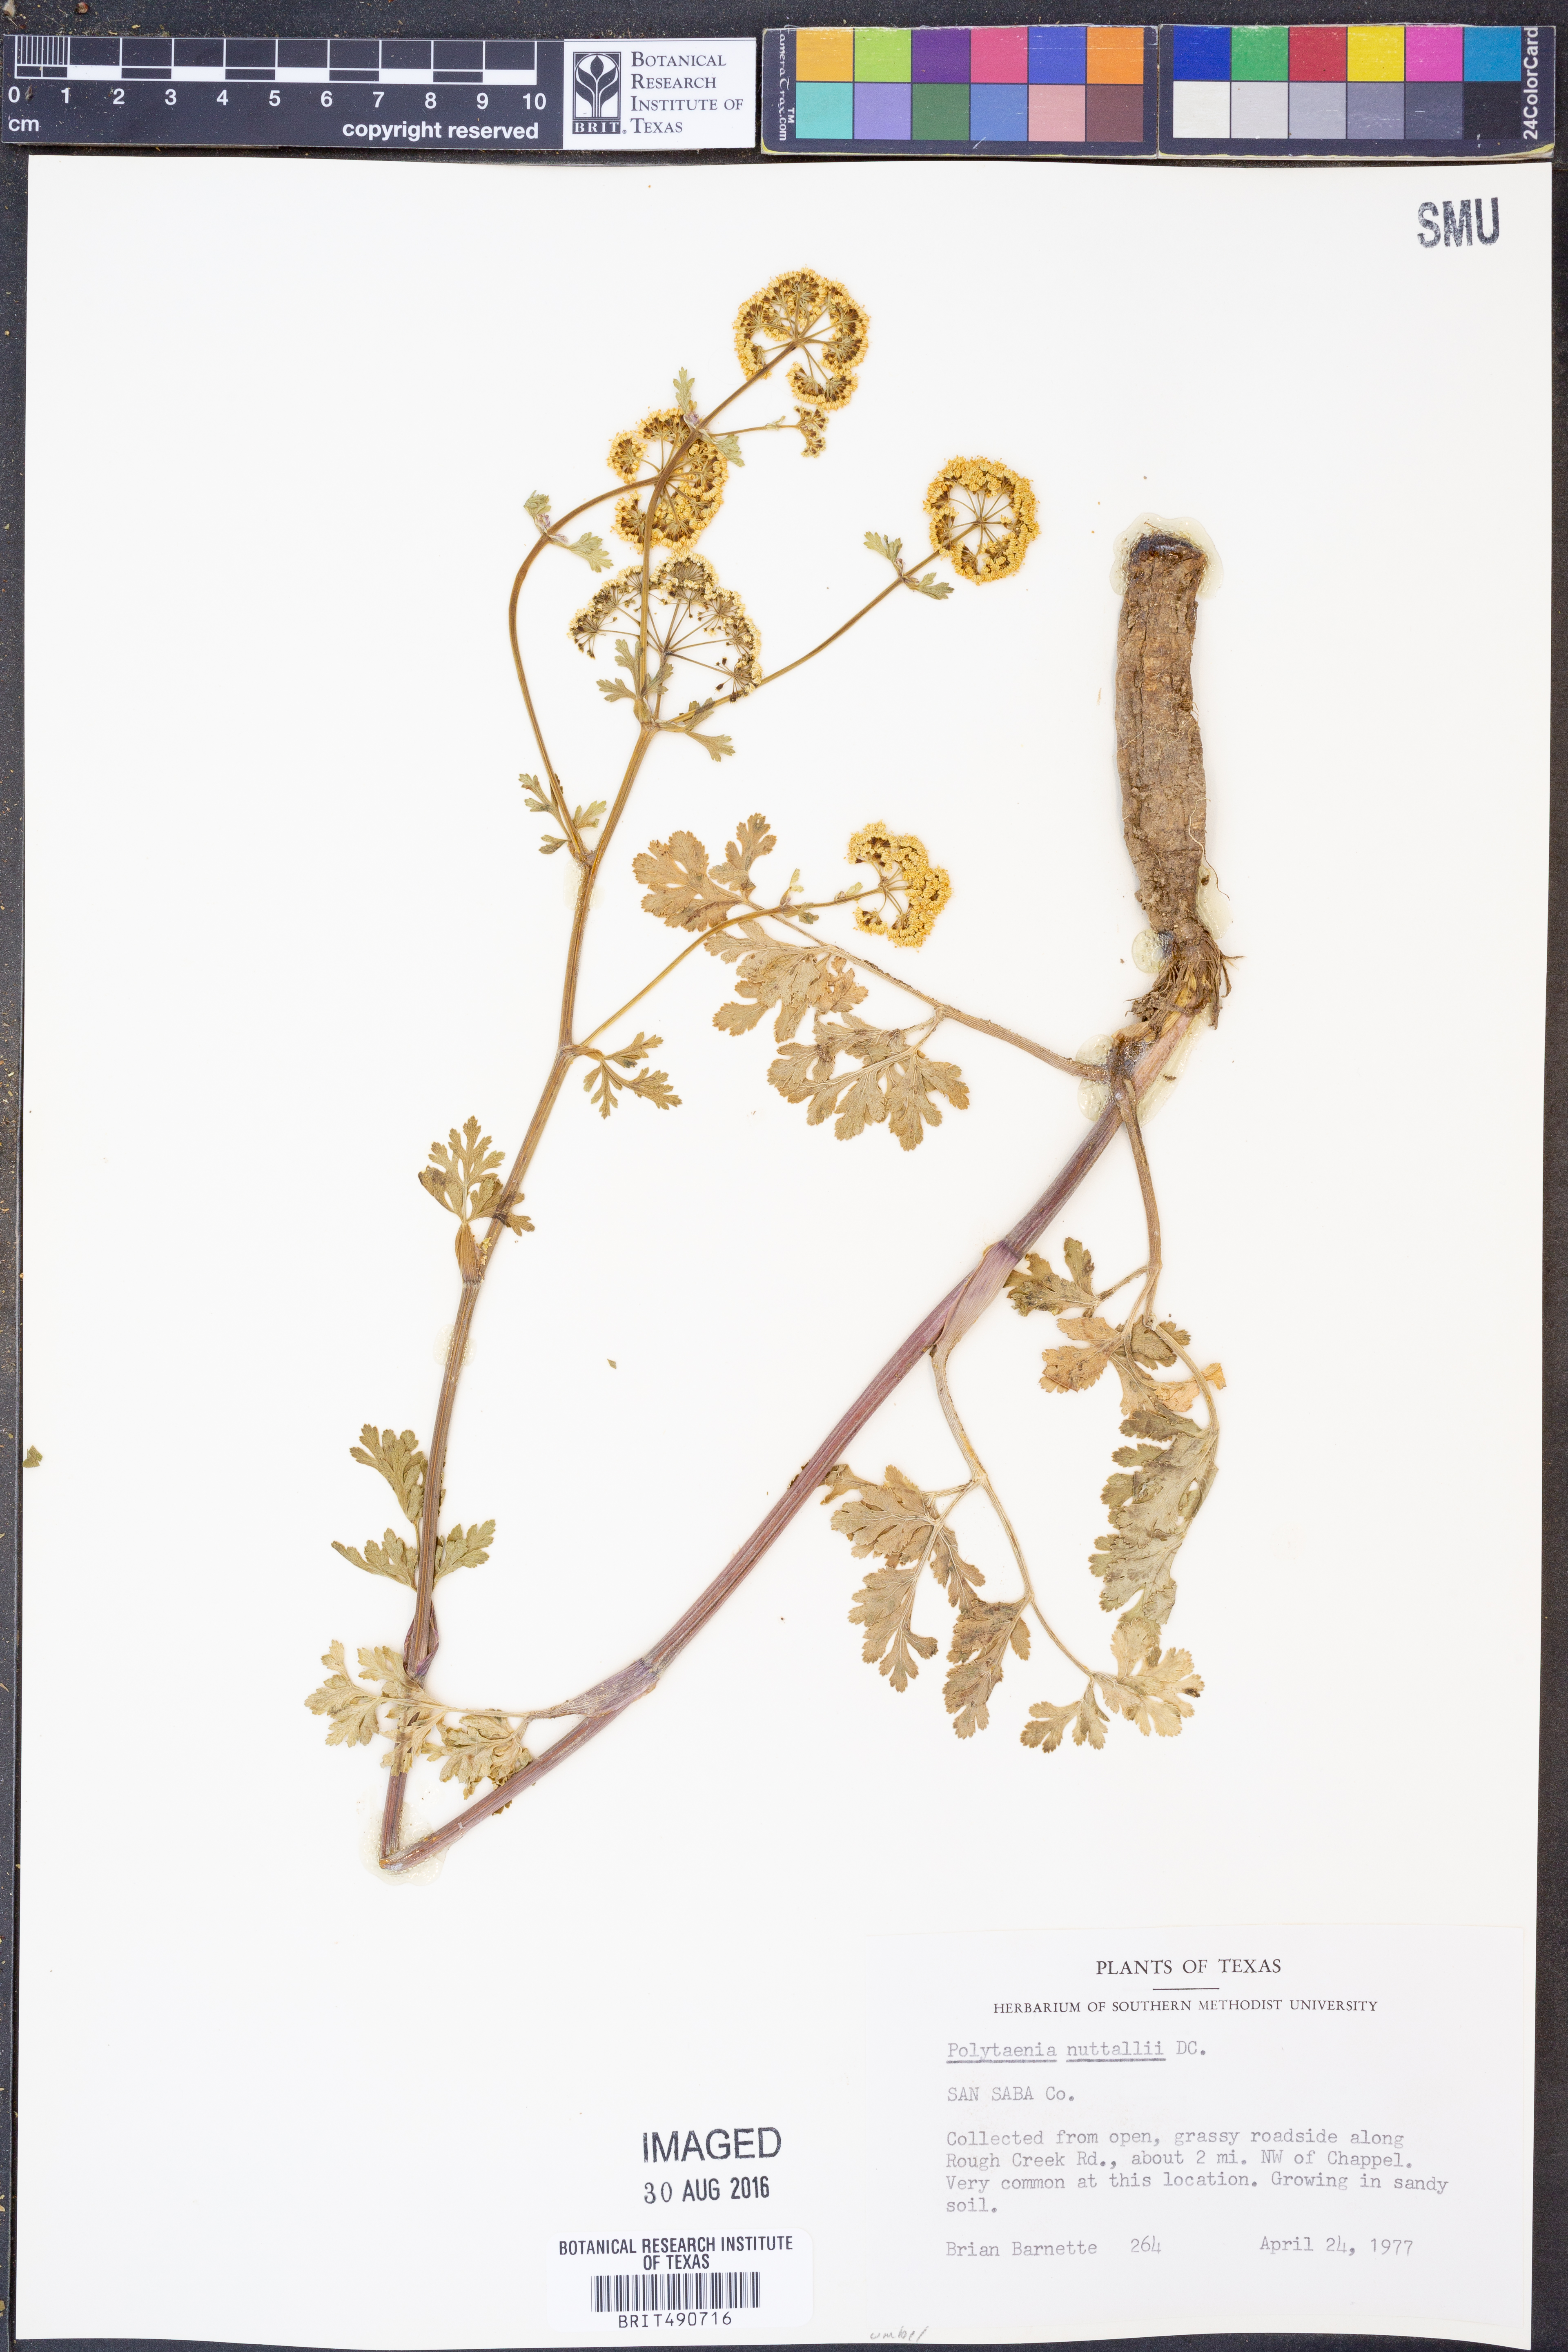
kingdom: Plantae
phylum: Tracheophyta
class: Magnoliopsida
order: Apiales
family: Apiaceae
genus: Polytaenia
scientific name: Polytaenia nuttallii
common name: Prairie-parsley
